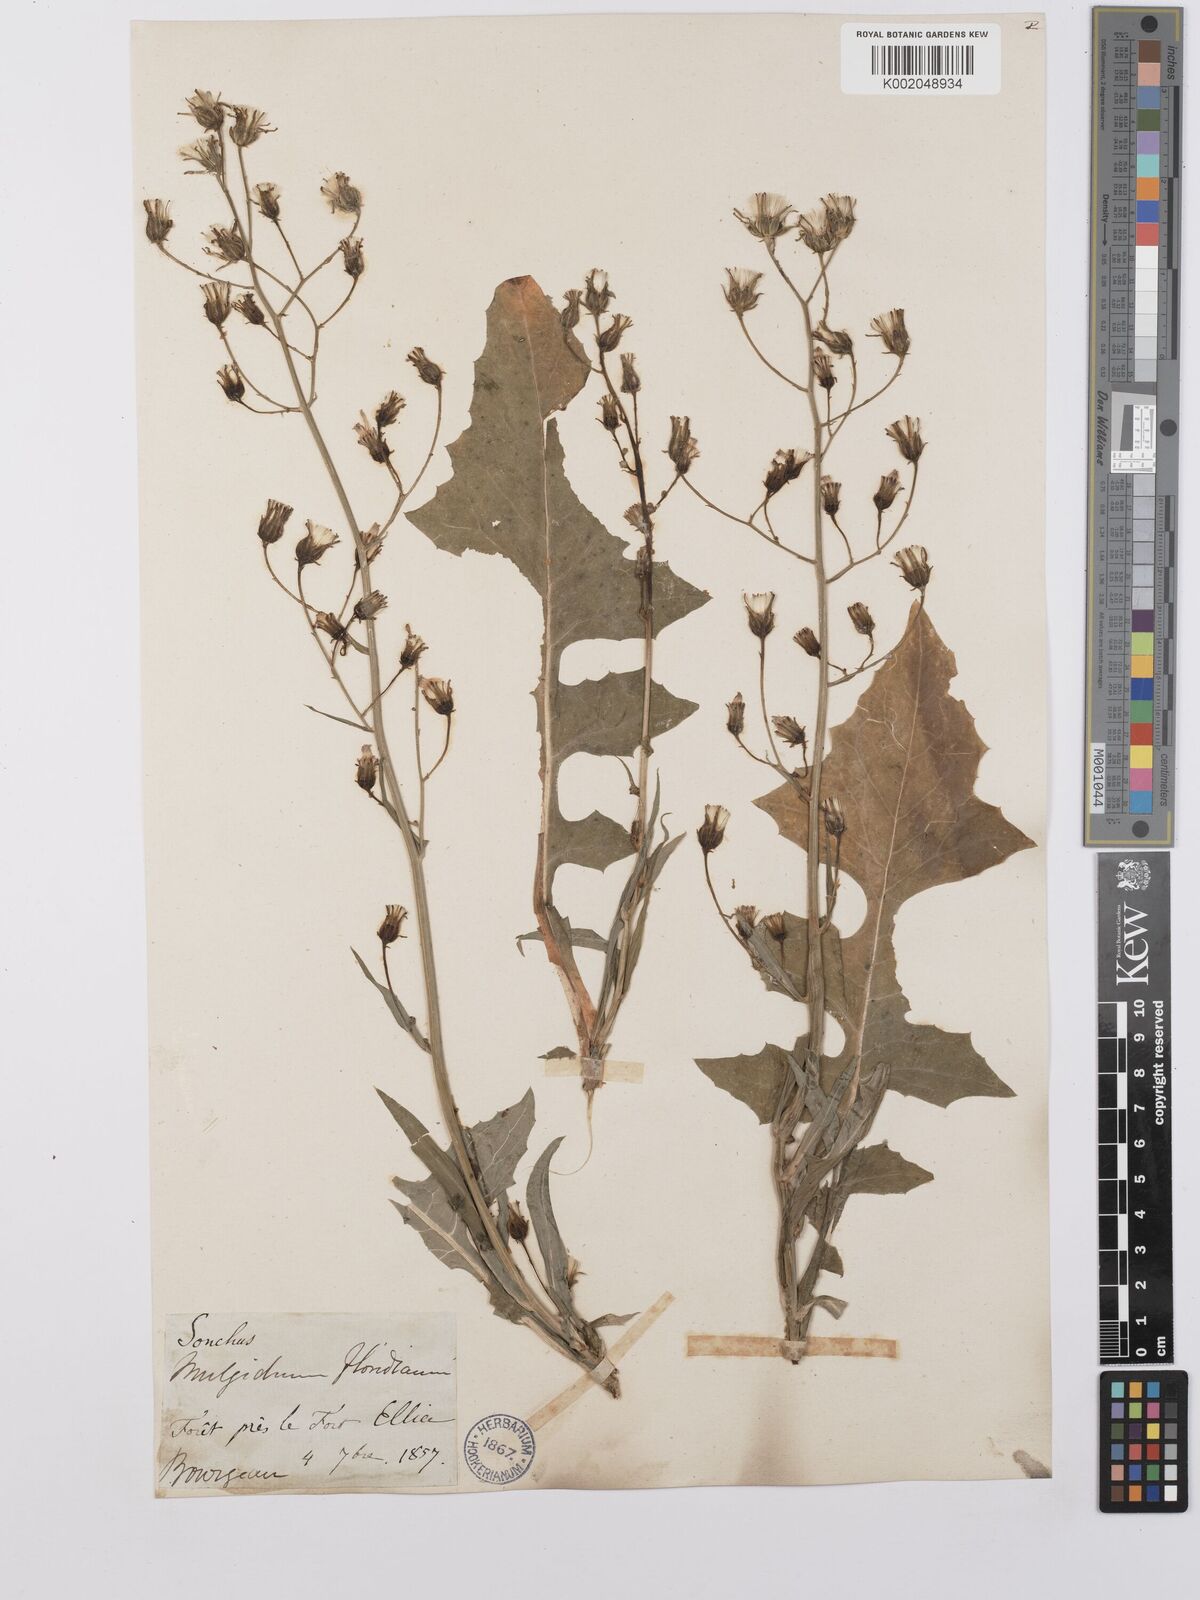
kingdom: Plantae
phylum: Tracheophyta
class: Magnoliopsida
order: Asterales
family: Asteraceae
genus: Lactuca
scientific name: Lactuca floridana
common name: Woodland lettuce
